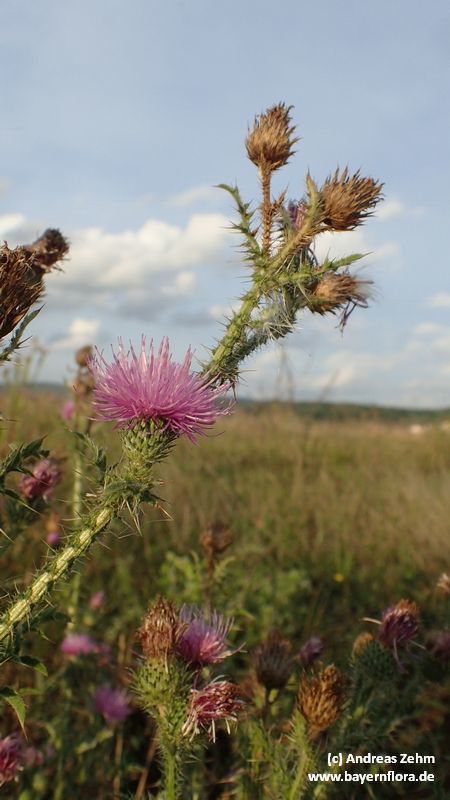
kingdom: Plantae
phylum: Tracheophyta
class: Magnoliopsida
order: Asterales
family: Asteraceae
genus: Carduus
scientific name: Carduus acanthoides
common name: Plumeless thistle
